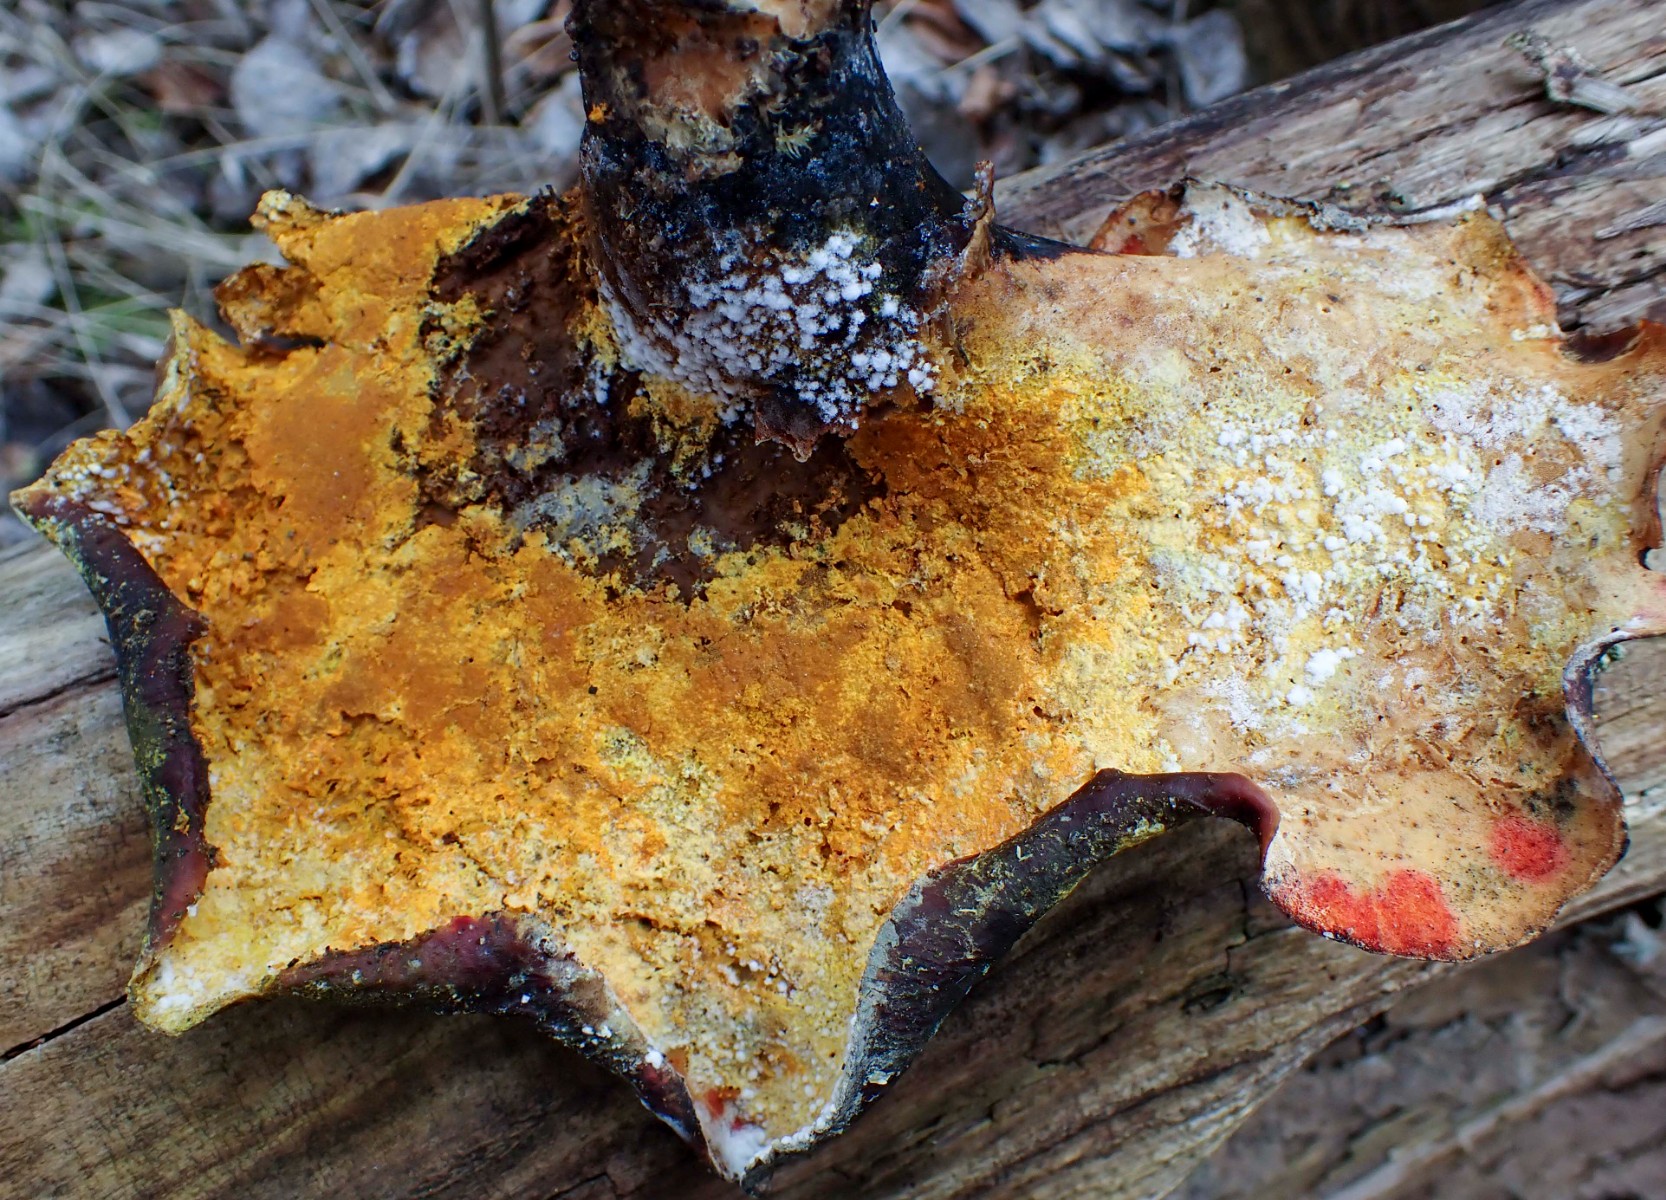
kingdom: Fungi
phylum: Ascomycota
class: Sordariomycetes
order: Hypocreales
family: Hypocreaceae
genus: Hypomyces
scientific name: Hypomyces aurantius
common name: almindelig snylteskorpe
